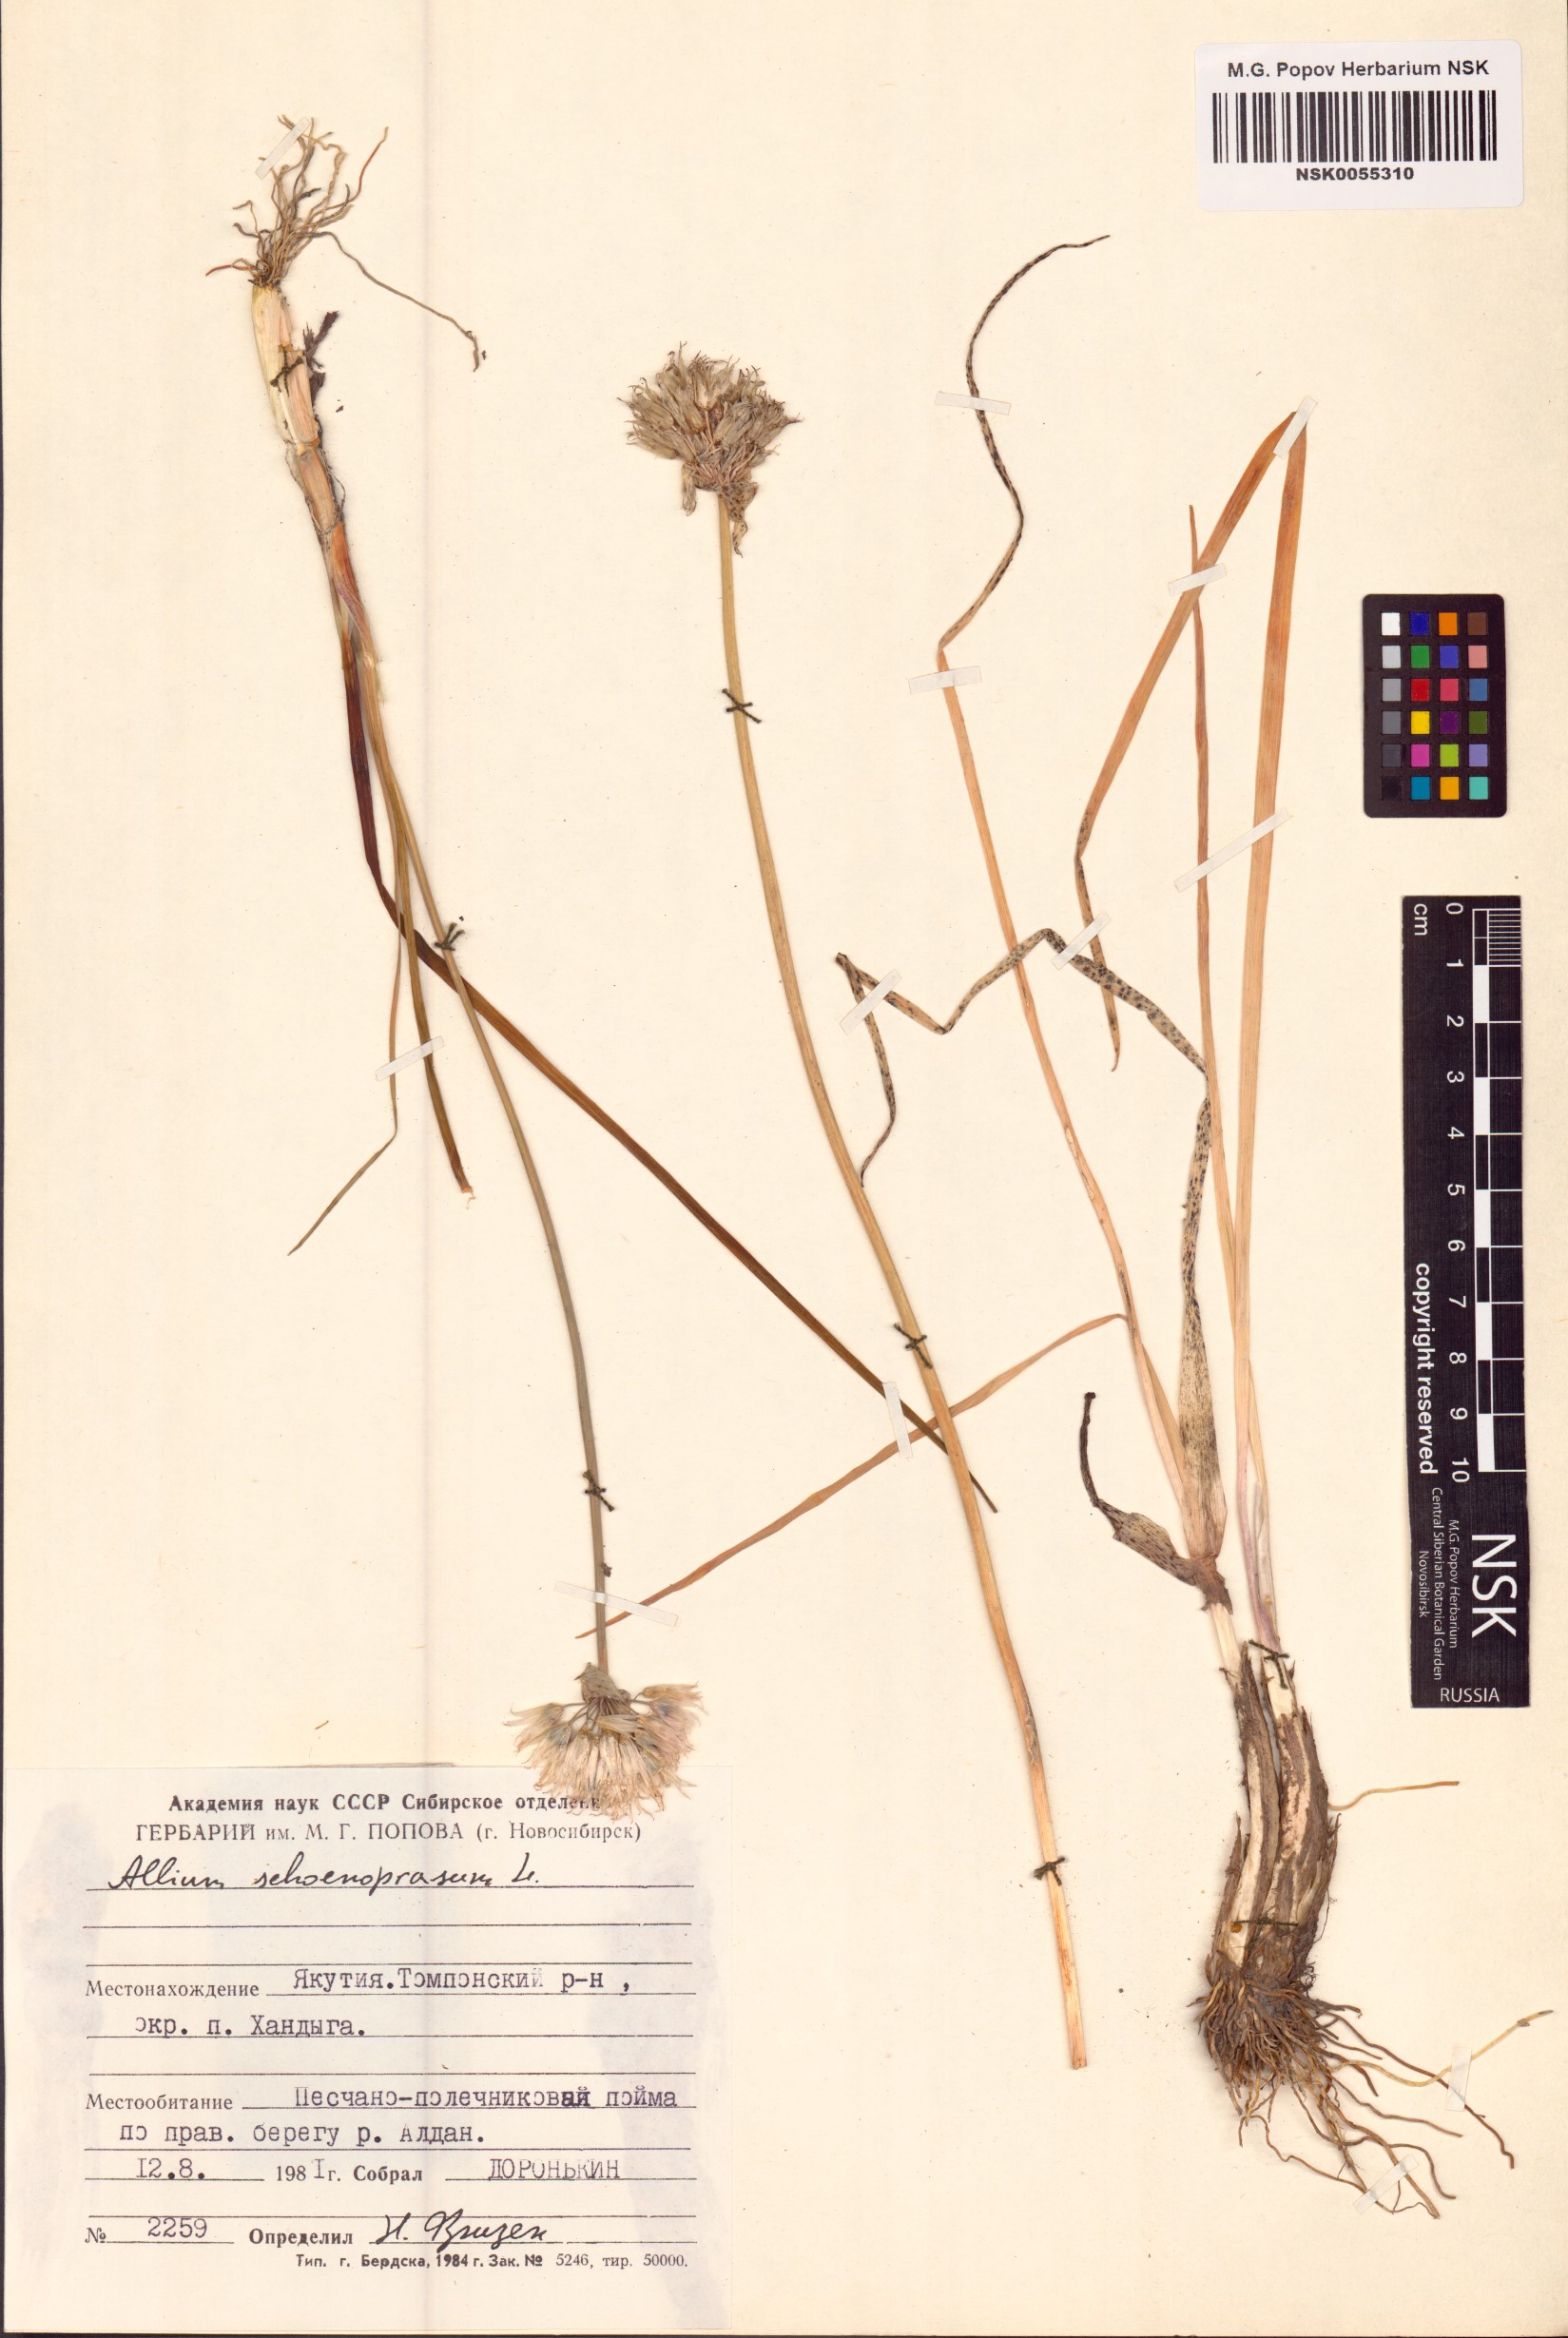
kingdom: Plantae
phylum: Tracheophyta
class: Liliopsida
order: Asparagales
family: Amaryllidaceae
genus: Allium
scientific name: Allium schoenoprasum
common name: Chives
